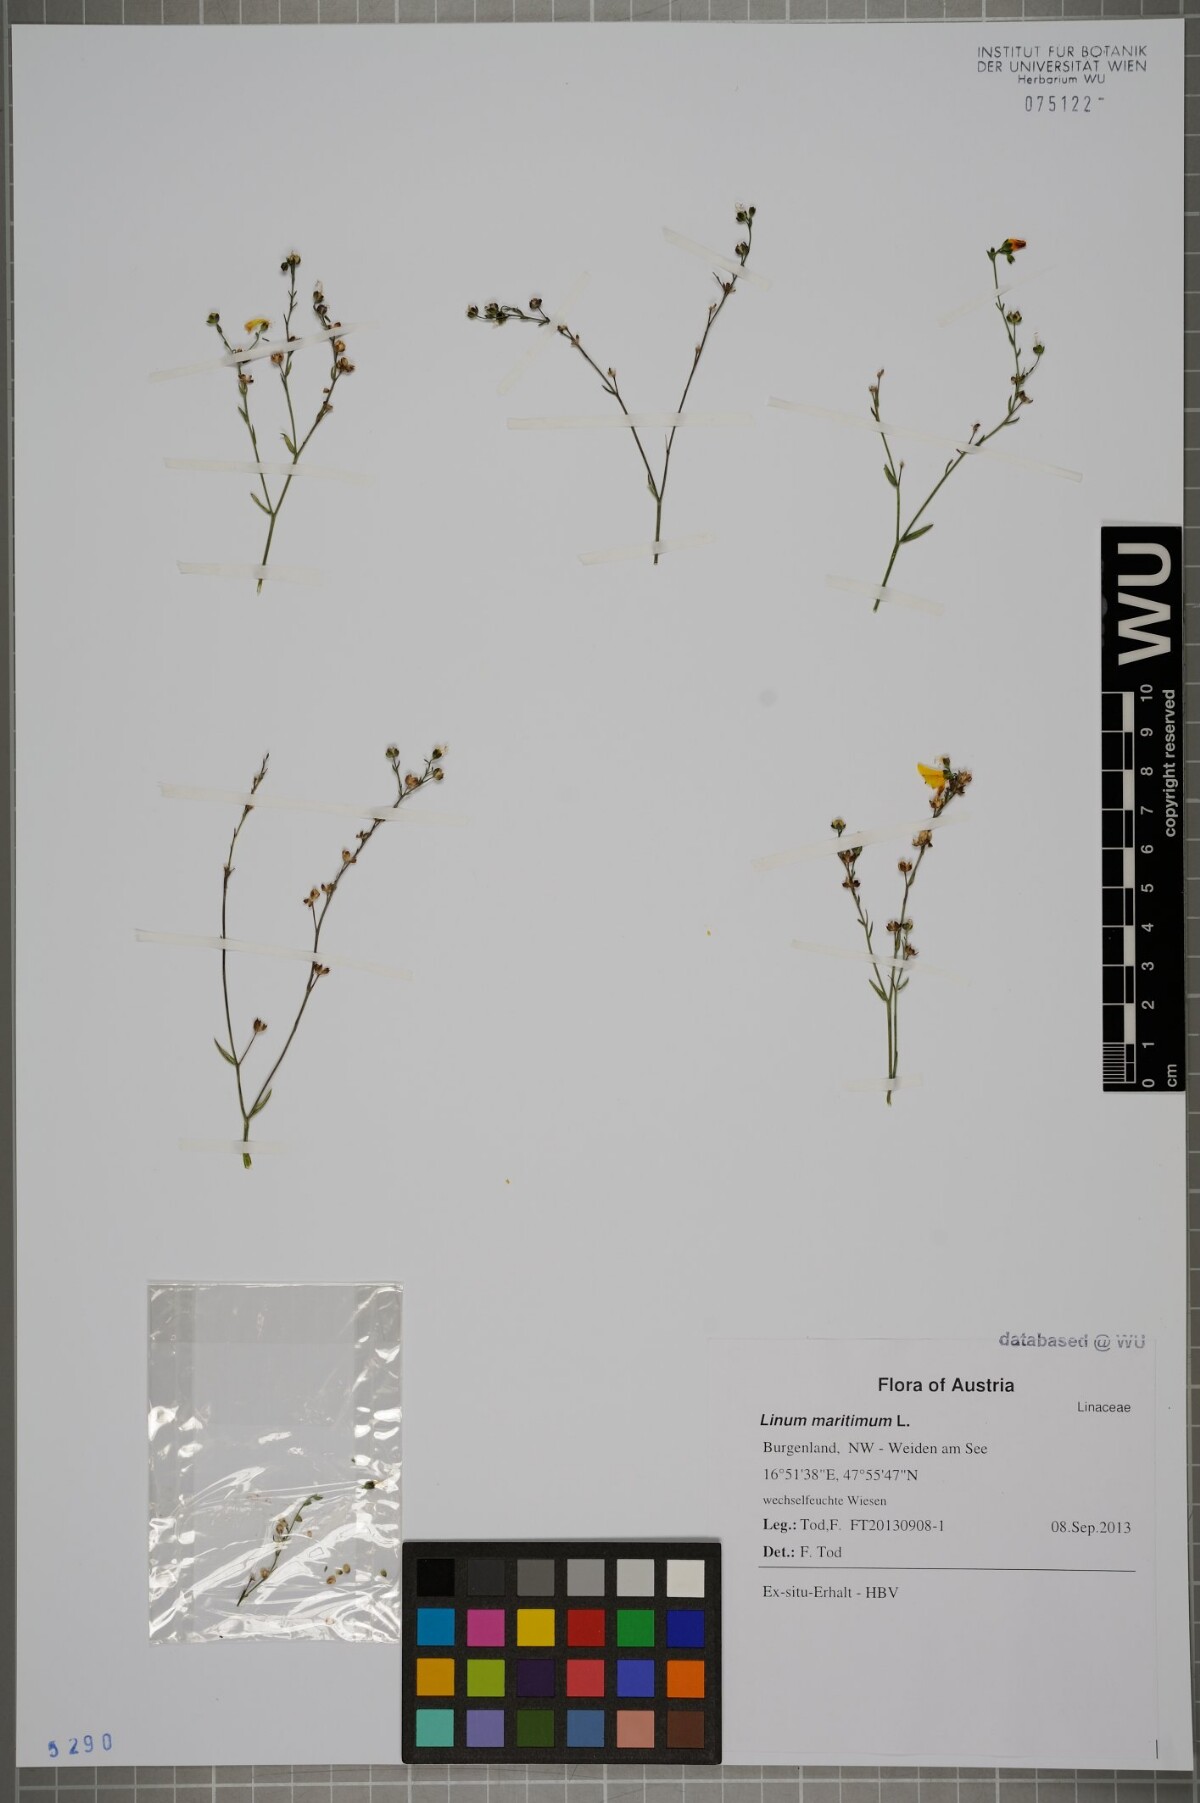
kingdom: Plantae
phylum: Tracheophyta
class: Magnoliopsida
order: Malpighiales
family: Linaceae
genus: Linum
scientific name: Linum maritimum
